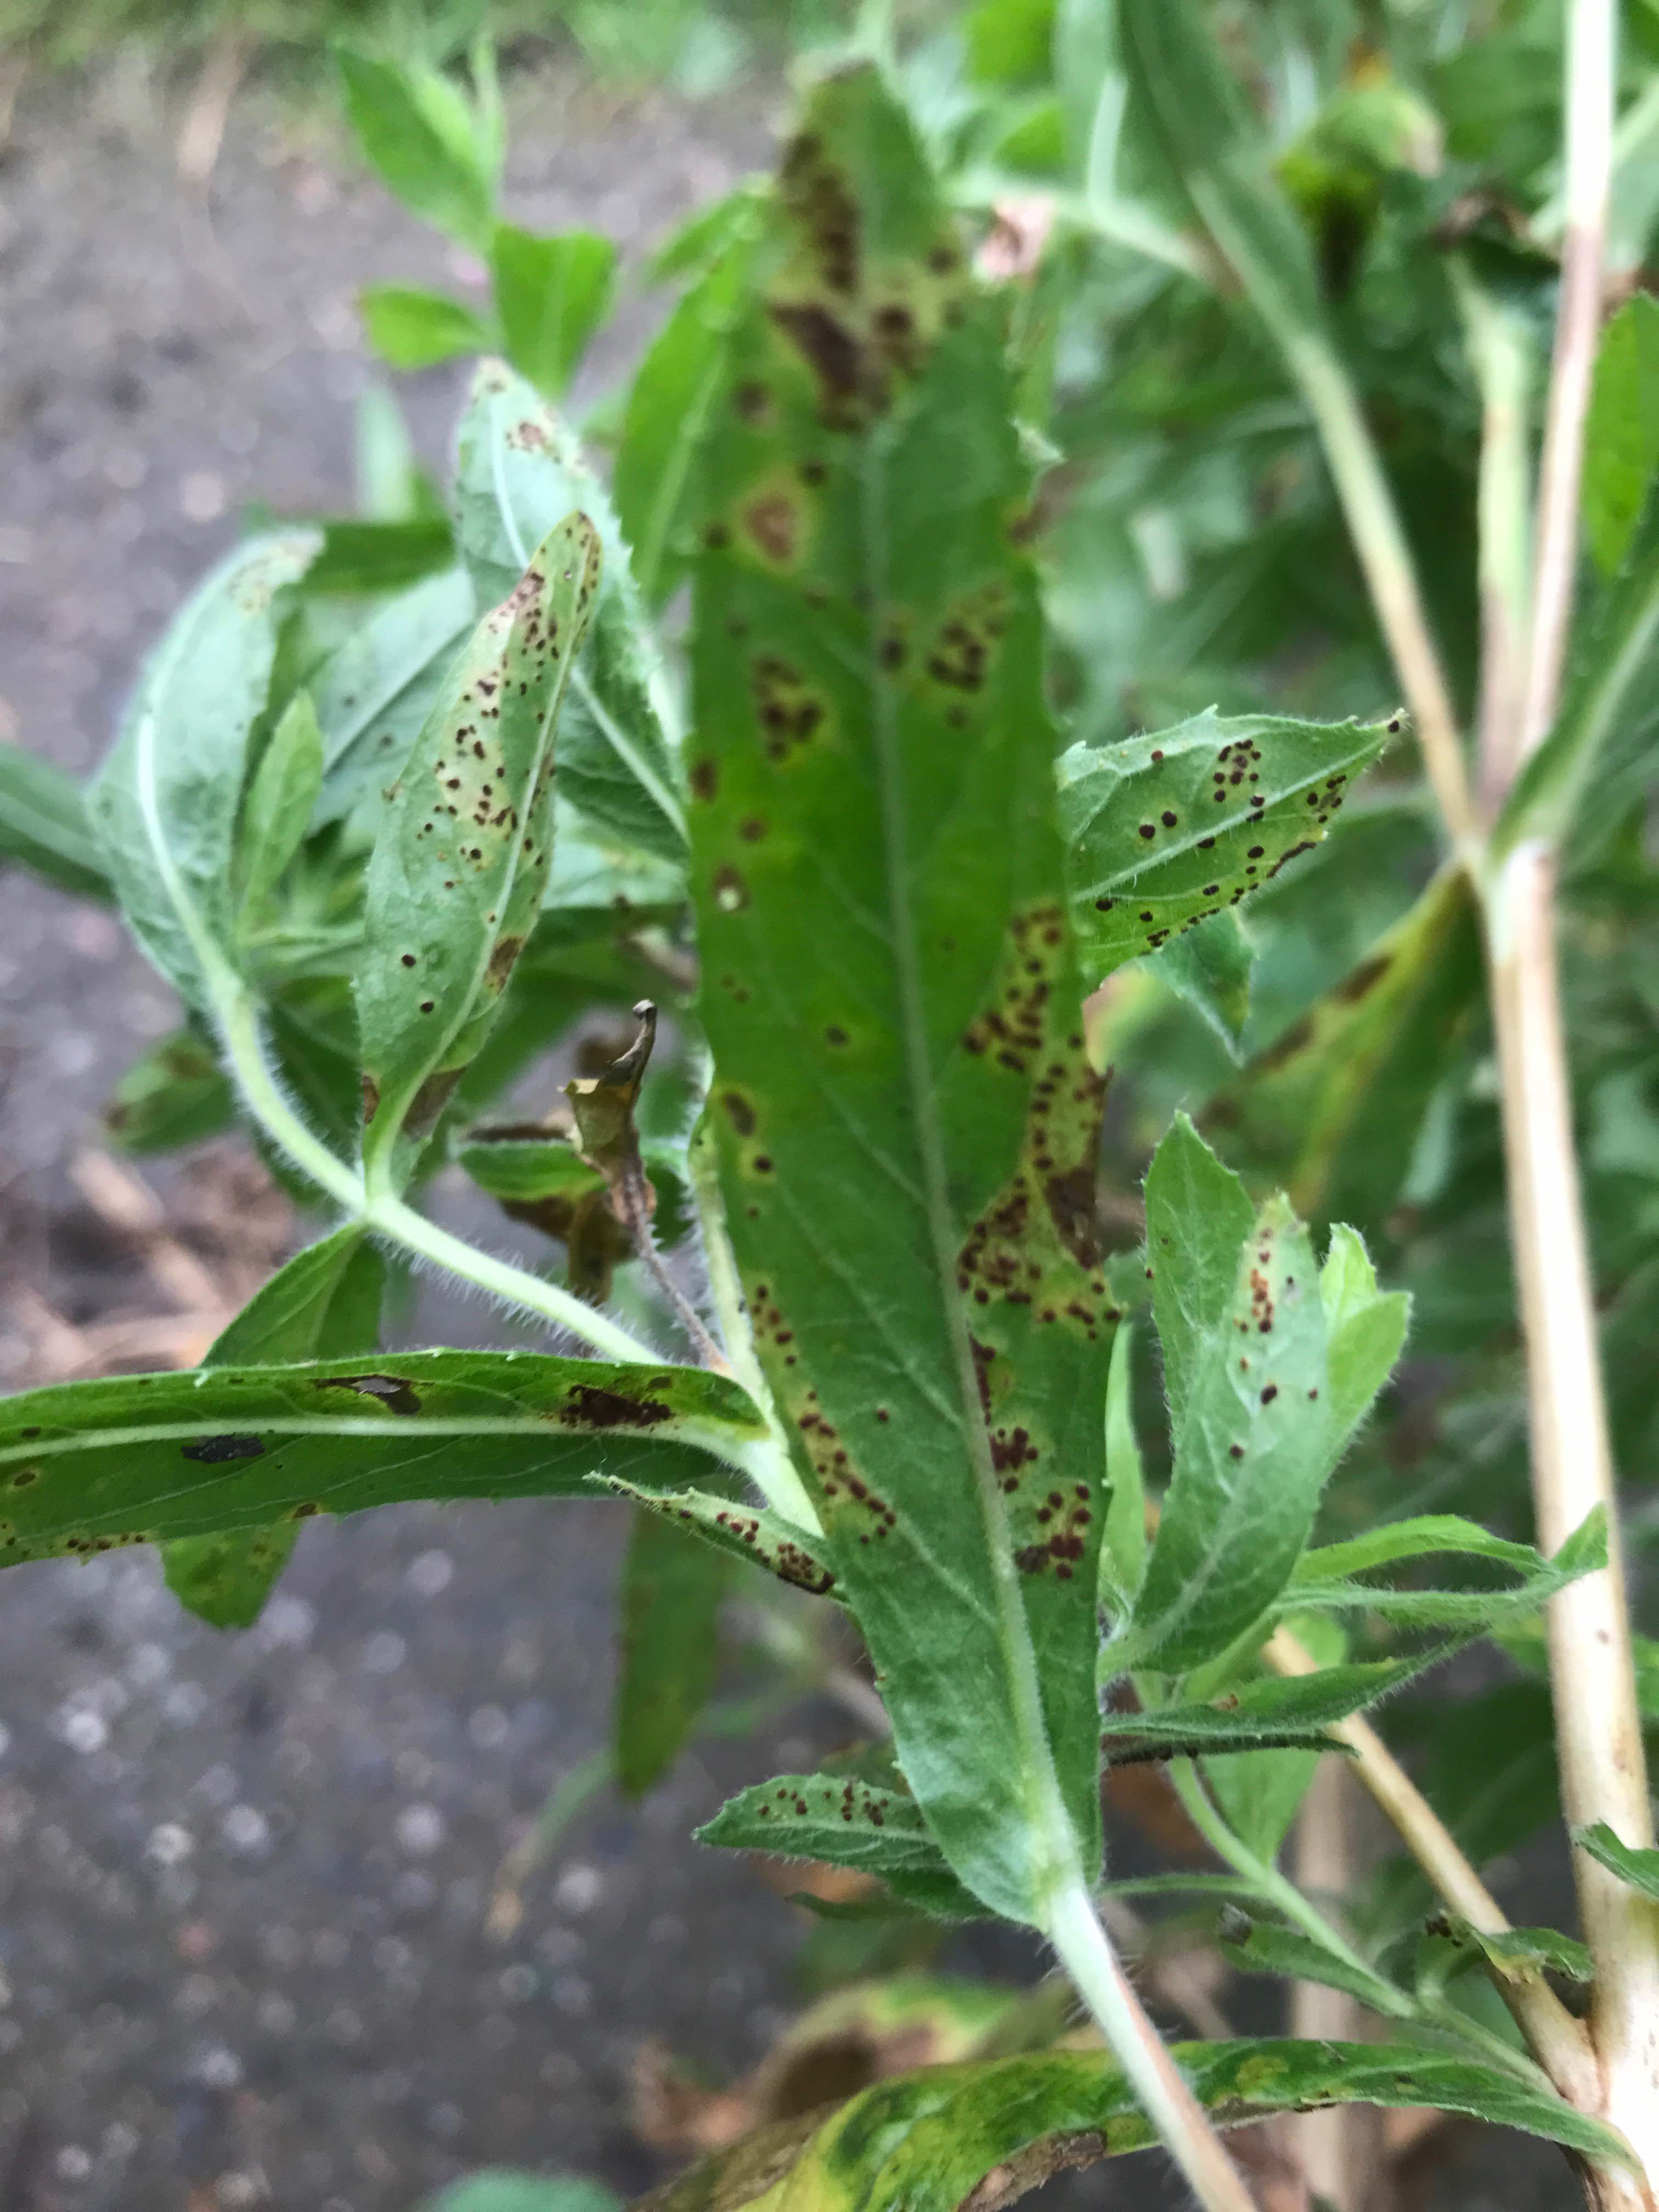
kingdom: Fungi
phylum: Basidiomycota
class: Pucciniomycetes
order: Pucciniales
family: Pucciniaceae
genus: Puccinia
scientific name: Puccinia pulverulenta
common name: dueurt-tvecellerust
